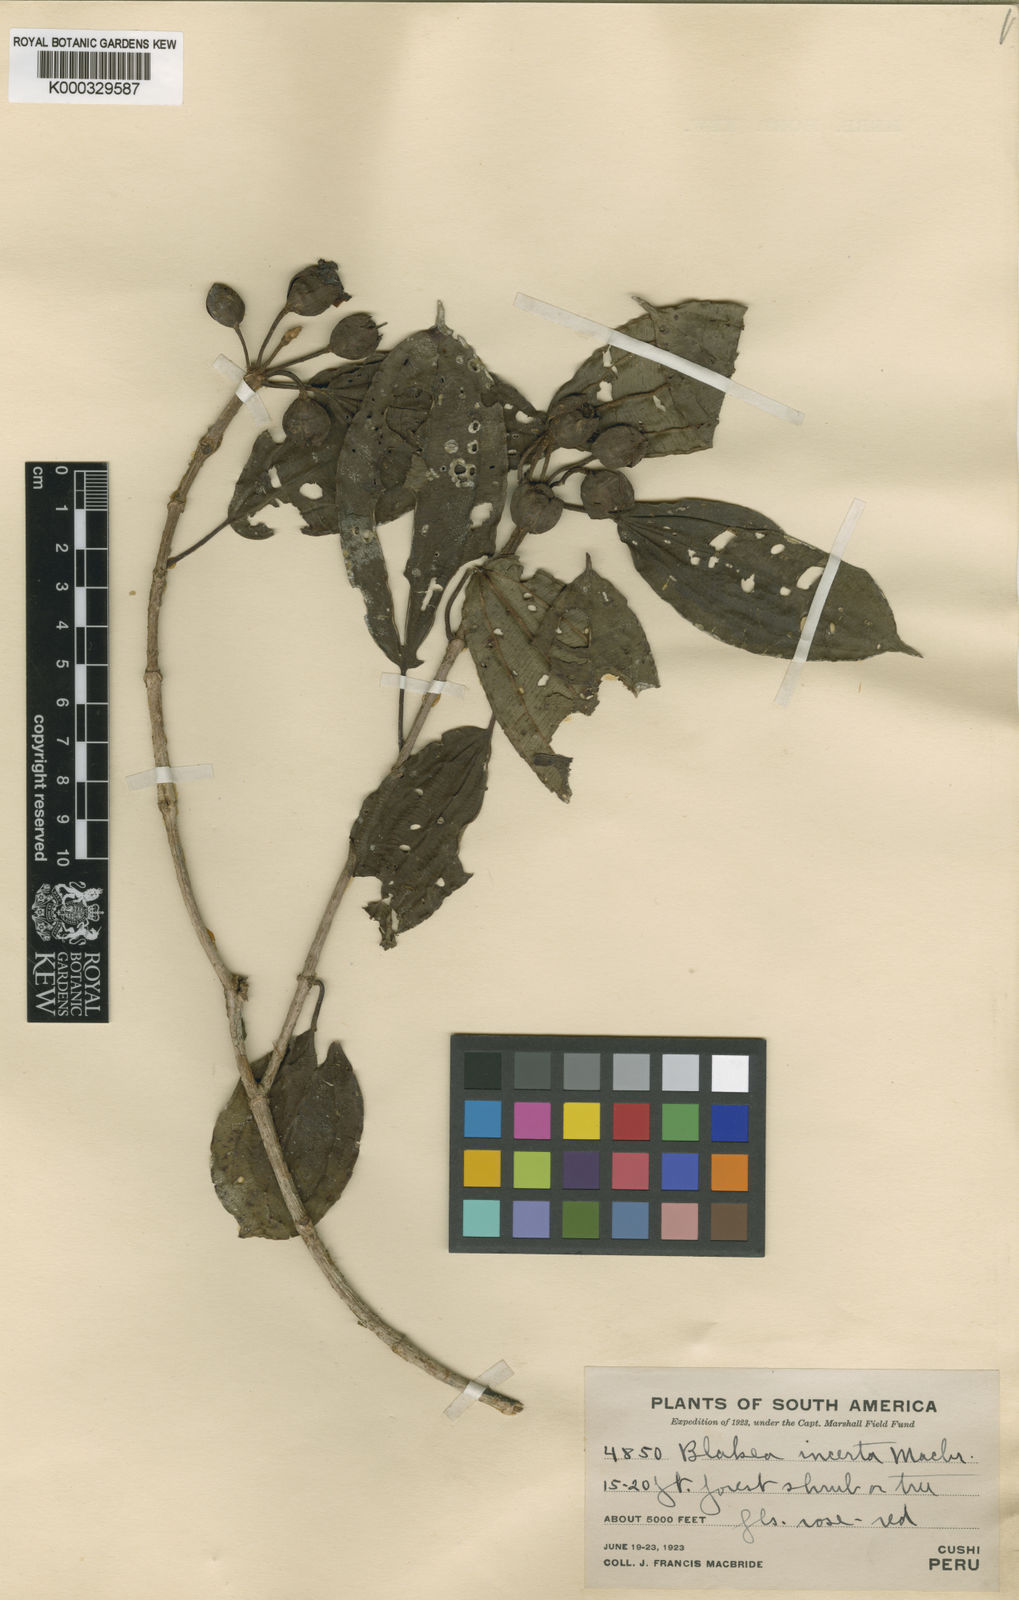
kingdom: Plantae
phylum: Tracheophyta
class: Magnoliopsida
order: Myrtales
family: Melastomataceae
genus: Blakea
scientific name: Blakea repens
